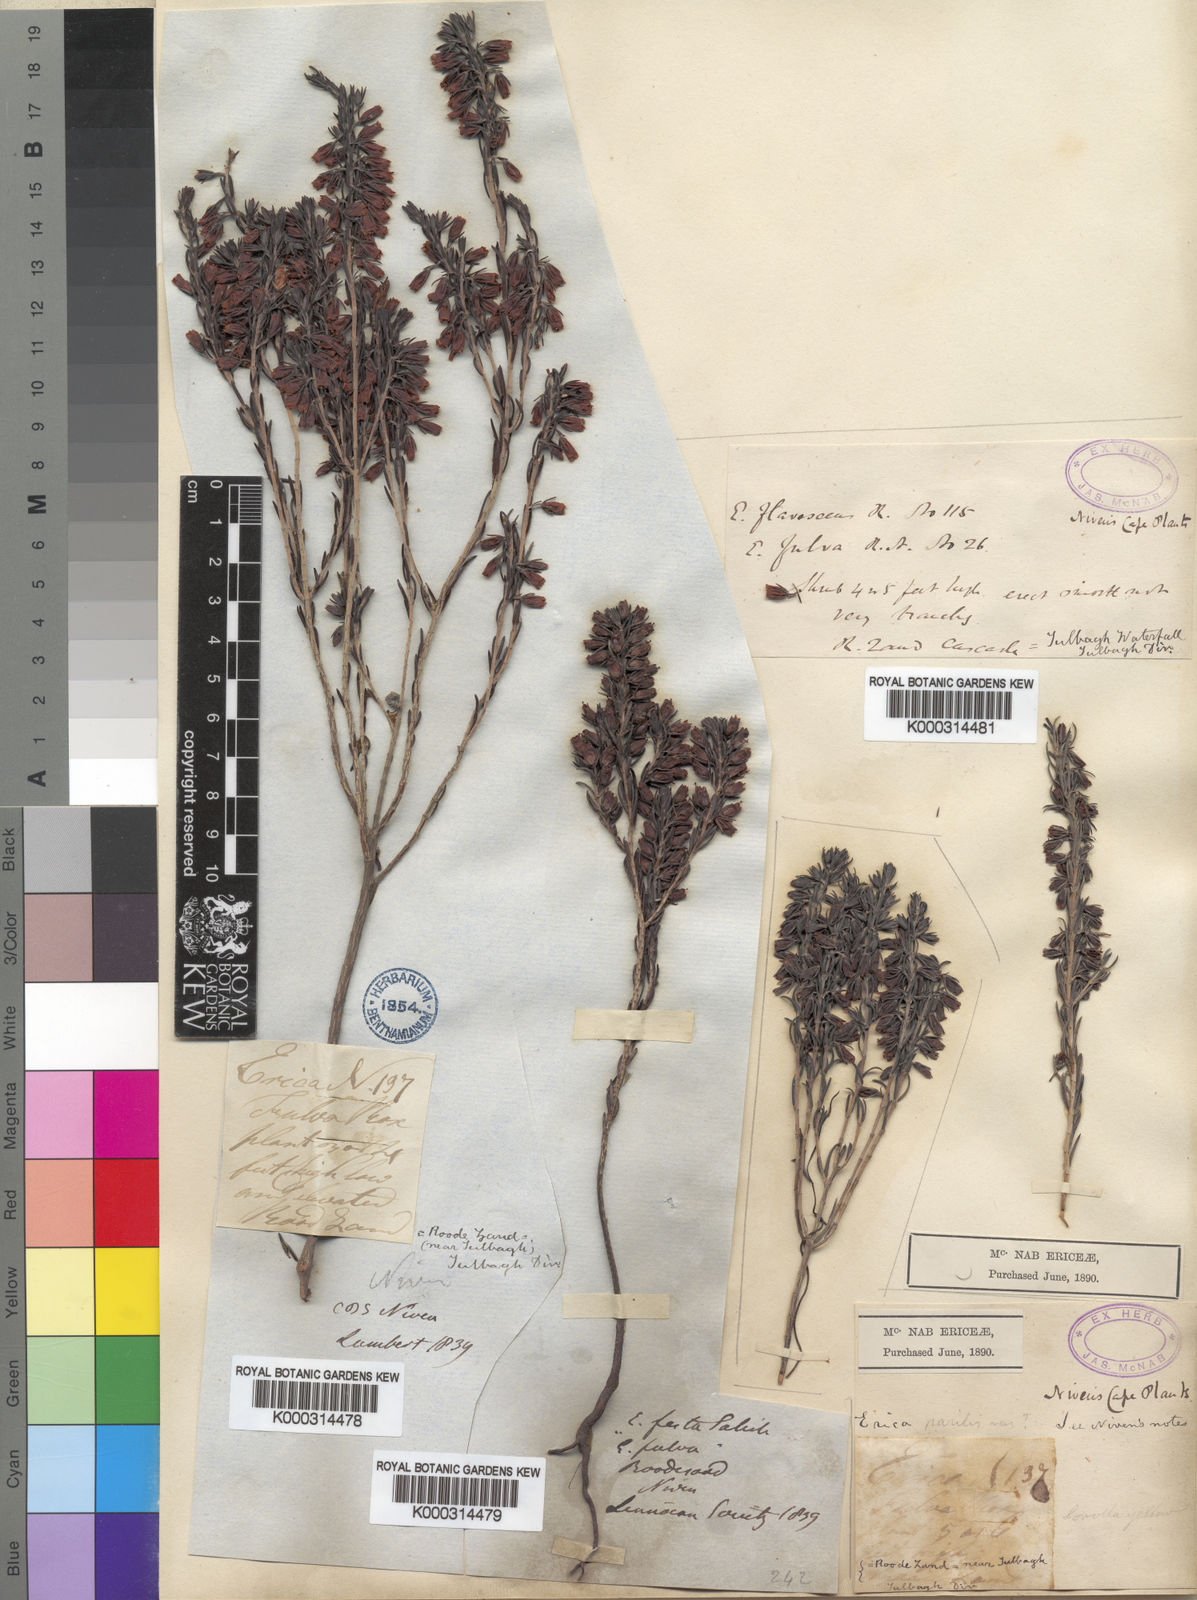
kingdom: Plantae
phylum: Tracheophyta
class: Magnoliopsida
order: Ericales
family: Ericaceae
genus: Erica
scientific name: Erica parilis
